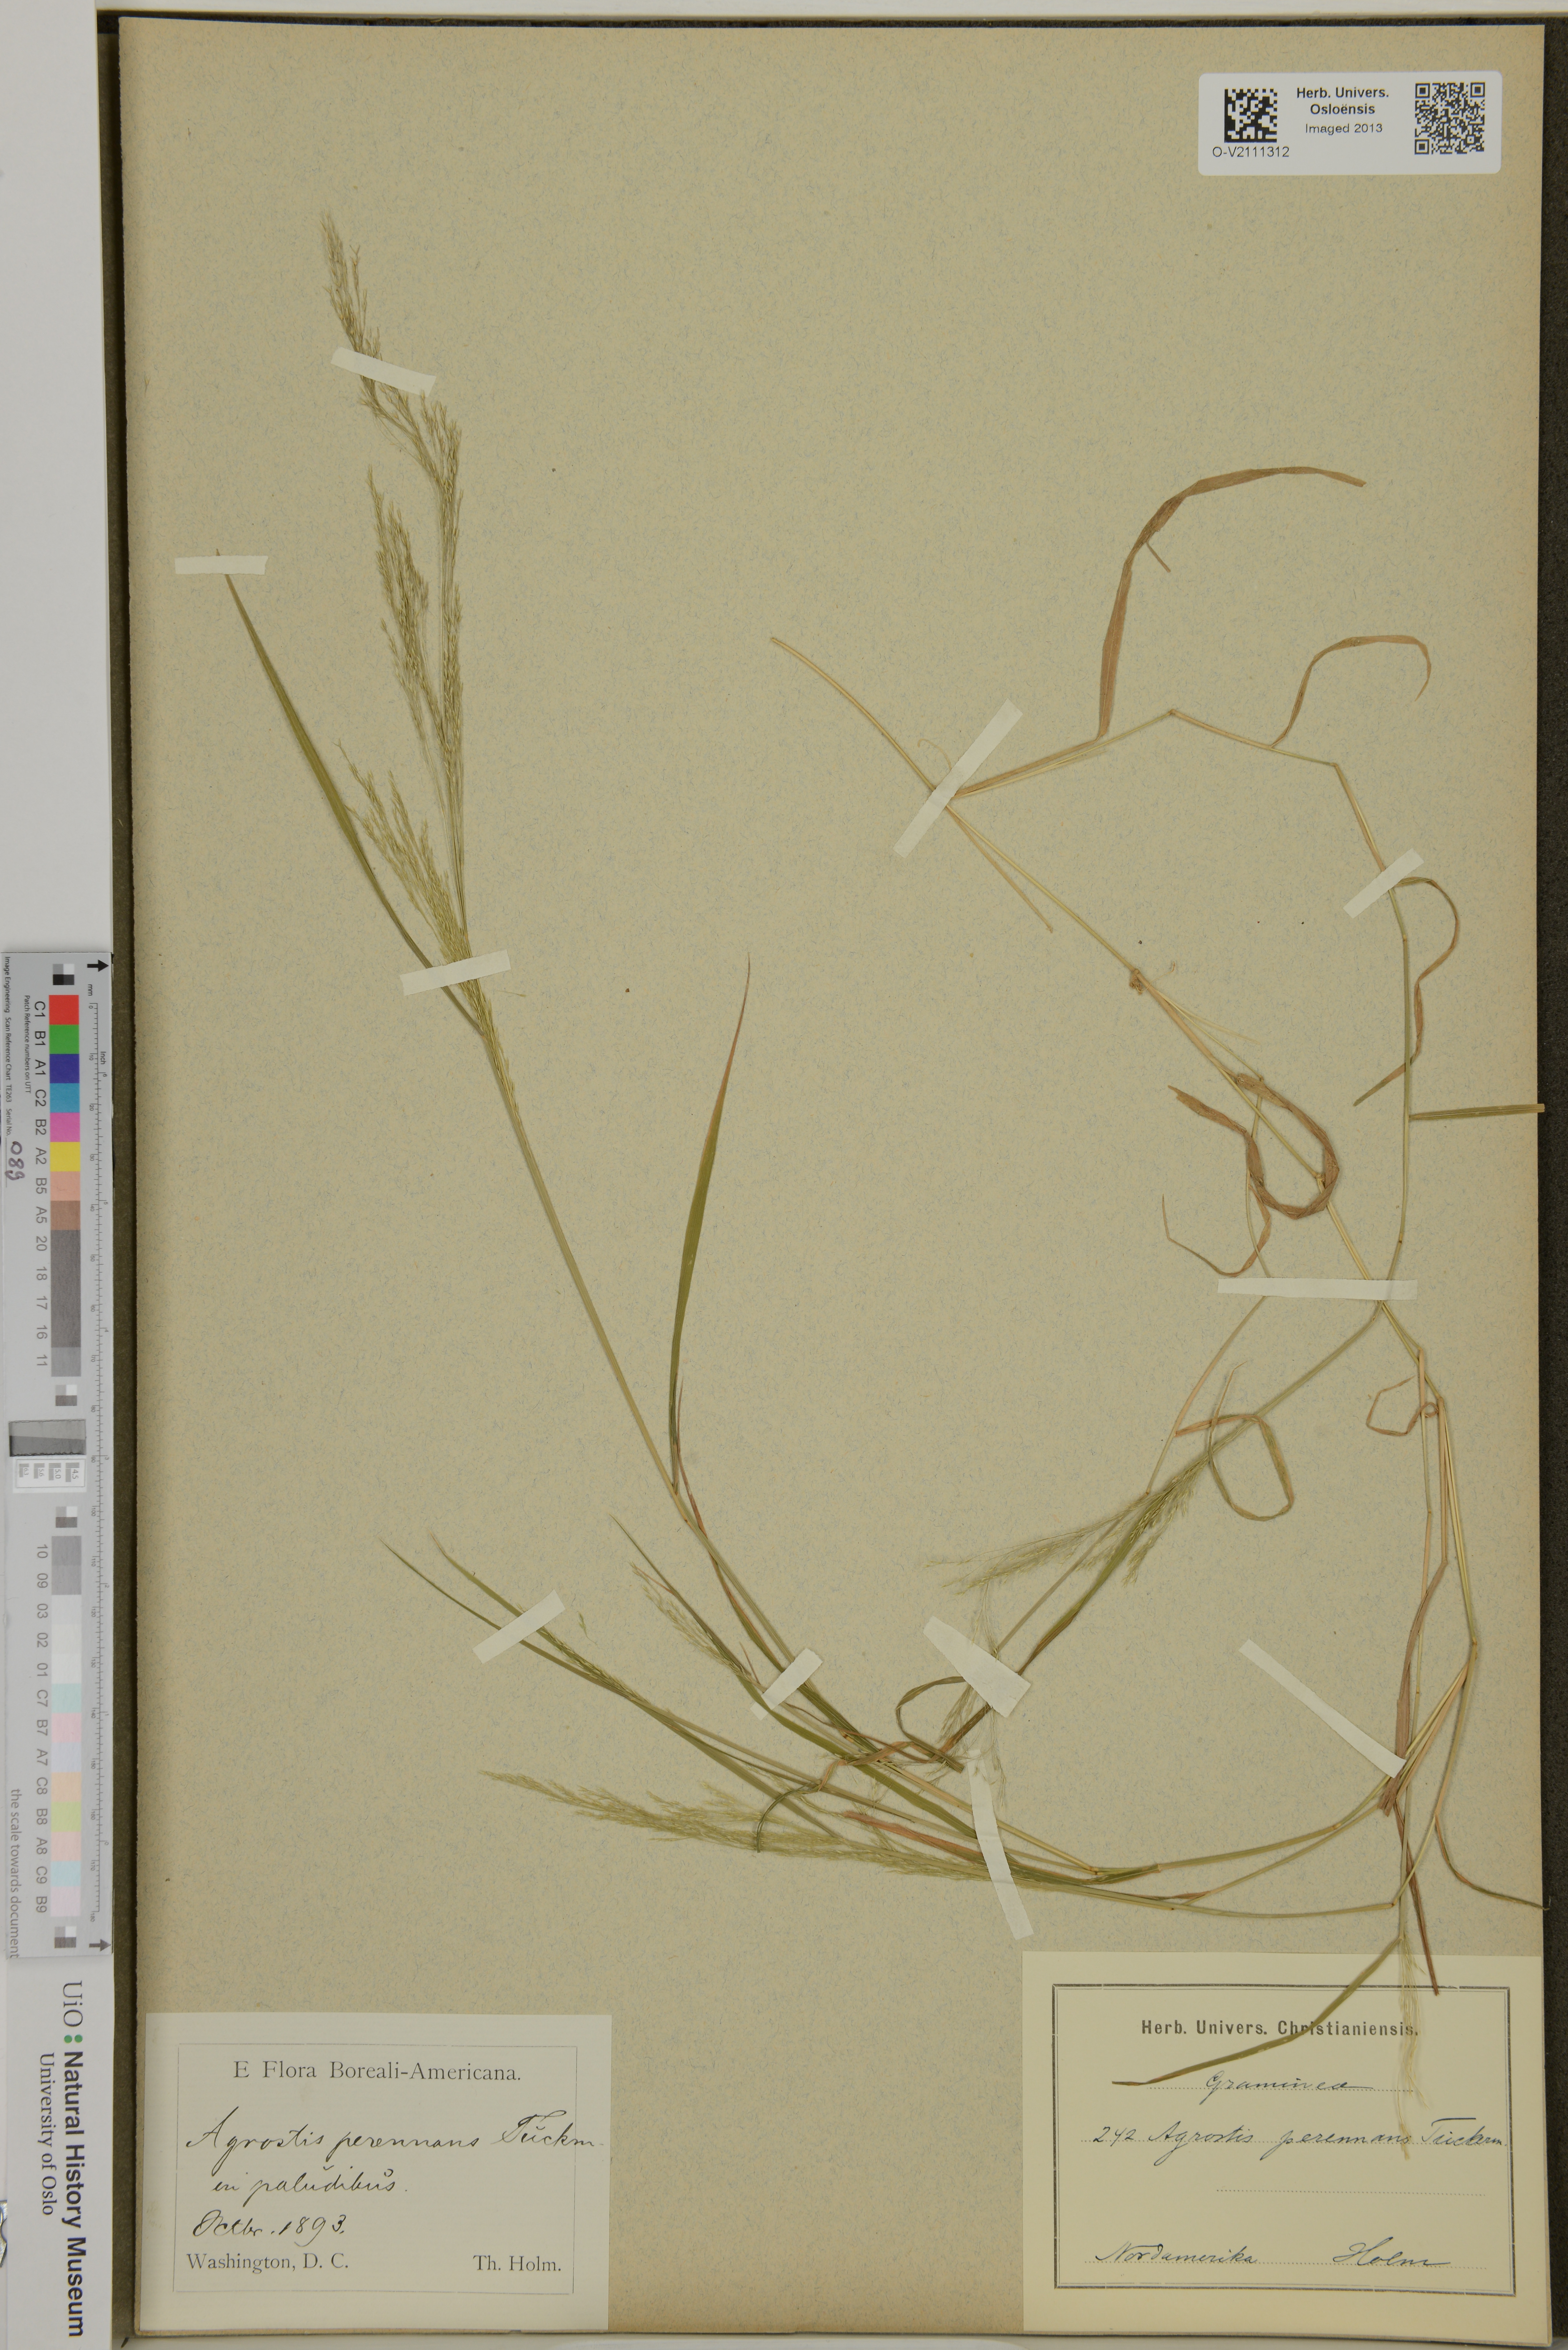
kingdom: Plantae
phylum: Tracheophyta
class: Liliopsida
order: Poales
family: Poaceae
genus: Agrostis
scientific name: Agrostis perennans
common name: Autumn bent
